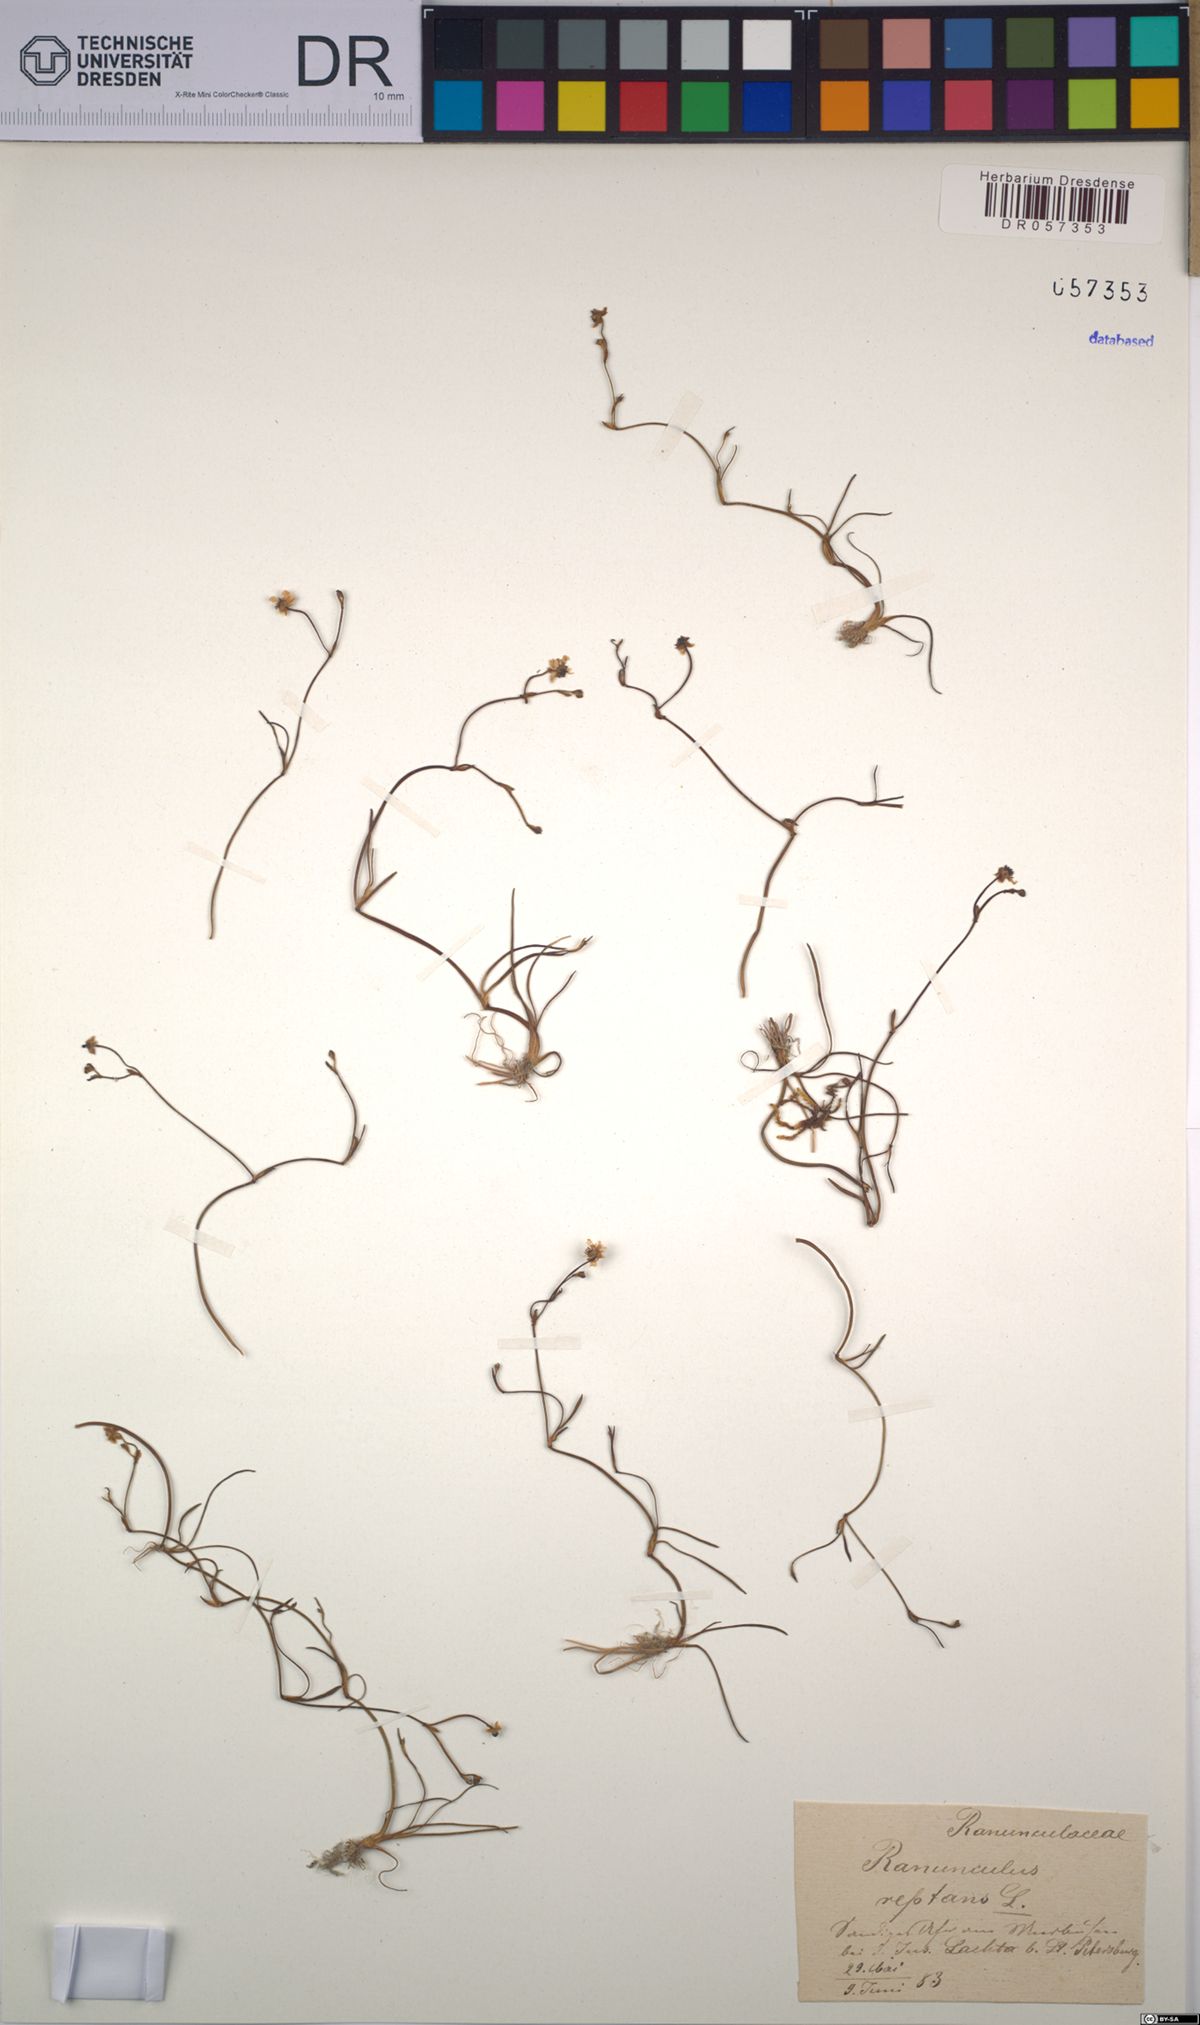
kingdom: Plantae
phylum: Tracheophyta
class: Magnoliopsida
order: Ranunculales
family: Ranunculaceae
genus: Ranunculus
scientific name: Ranunculus reptans
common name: Creeping spearwort
